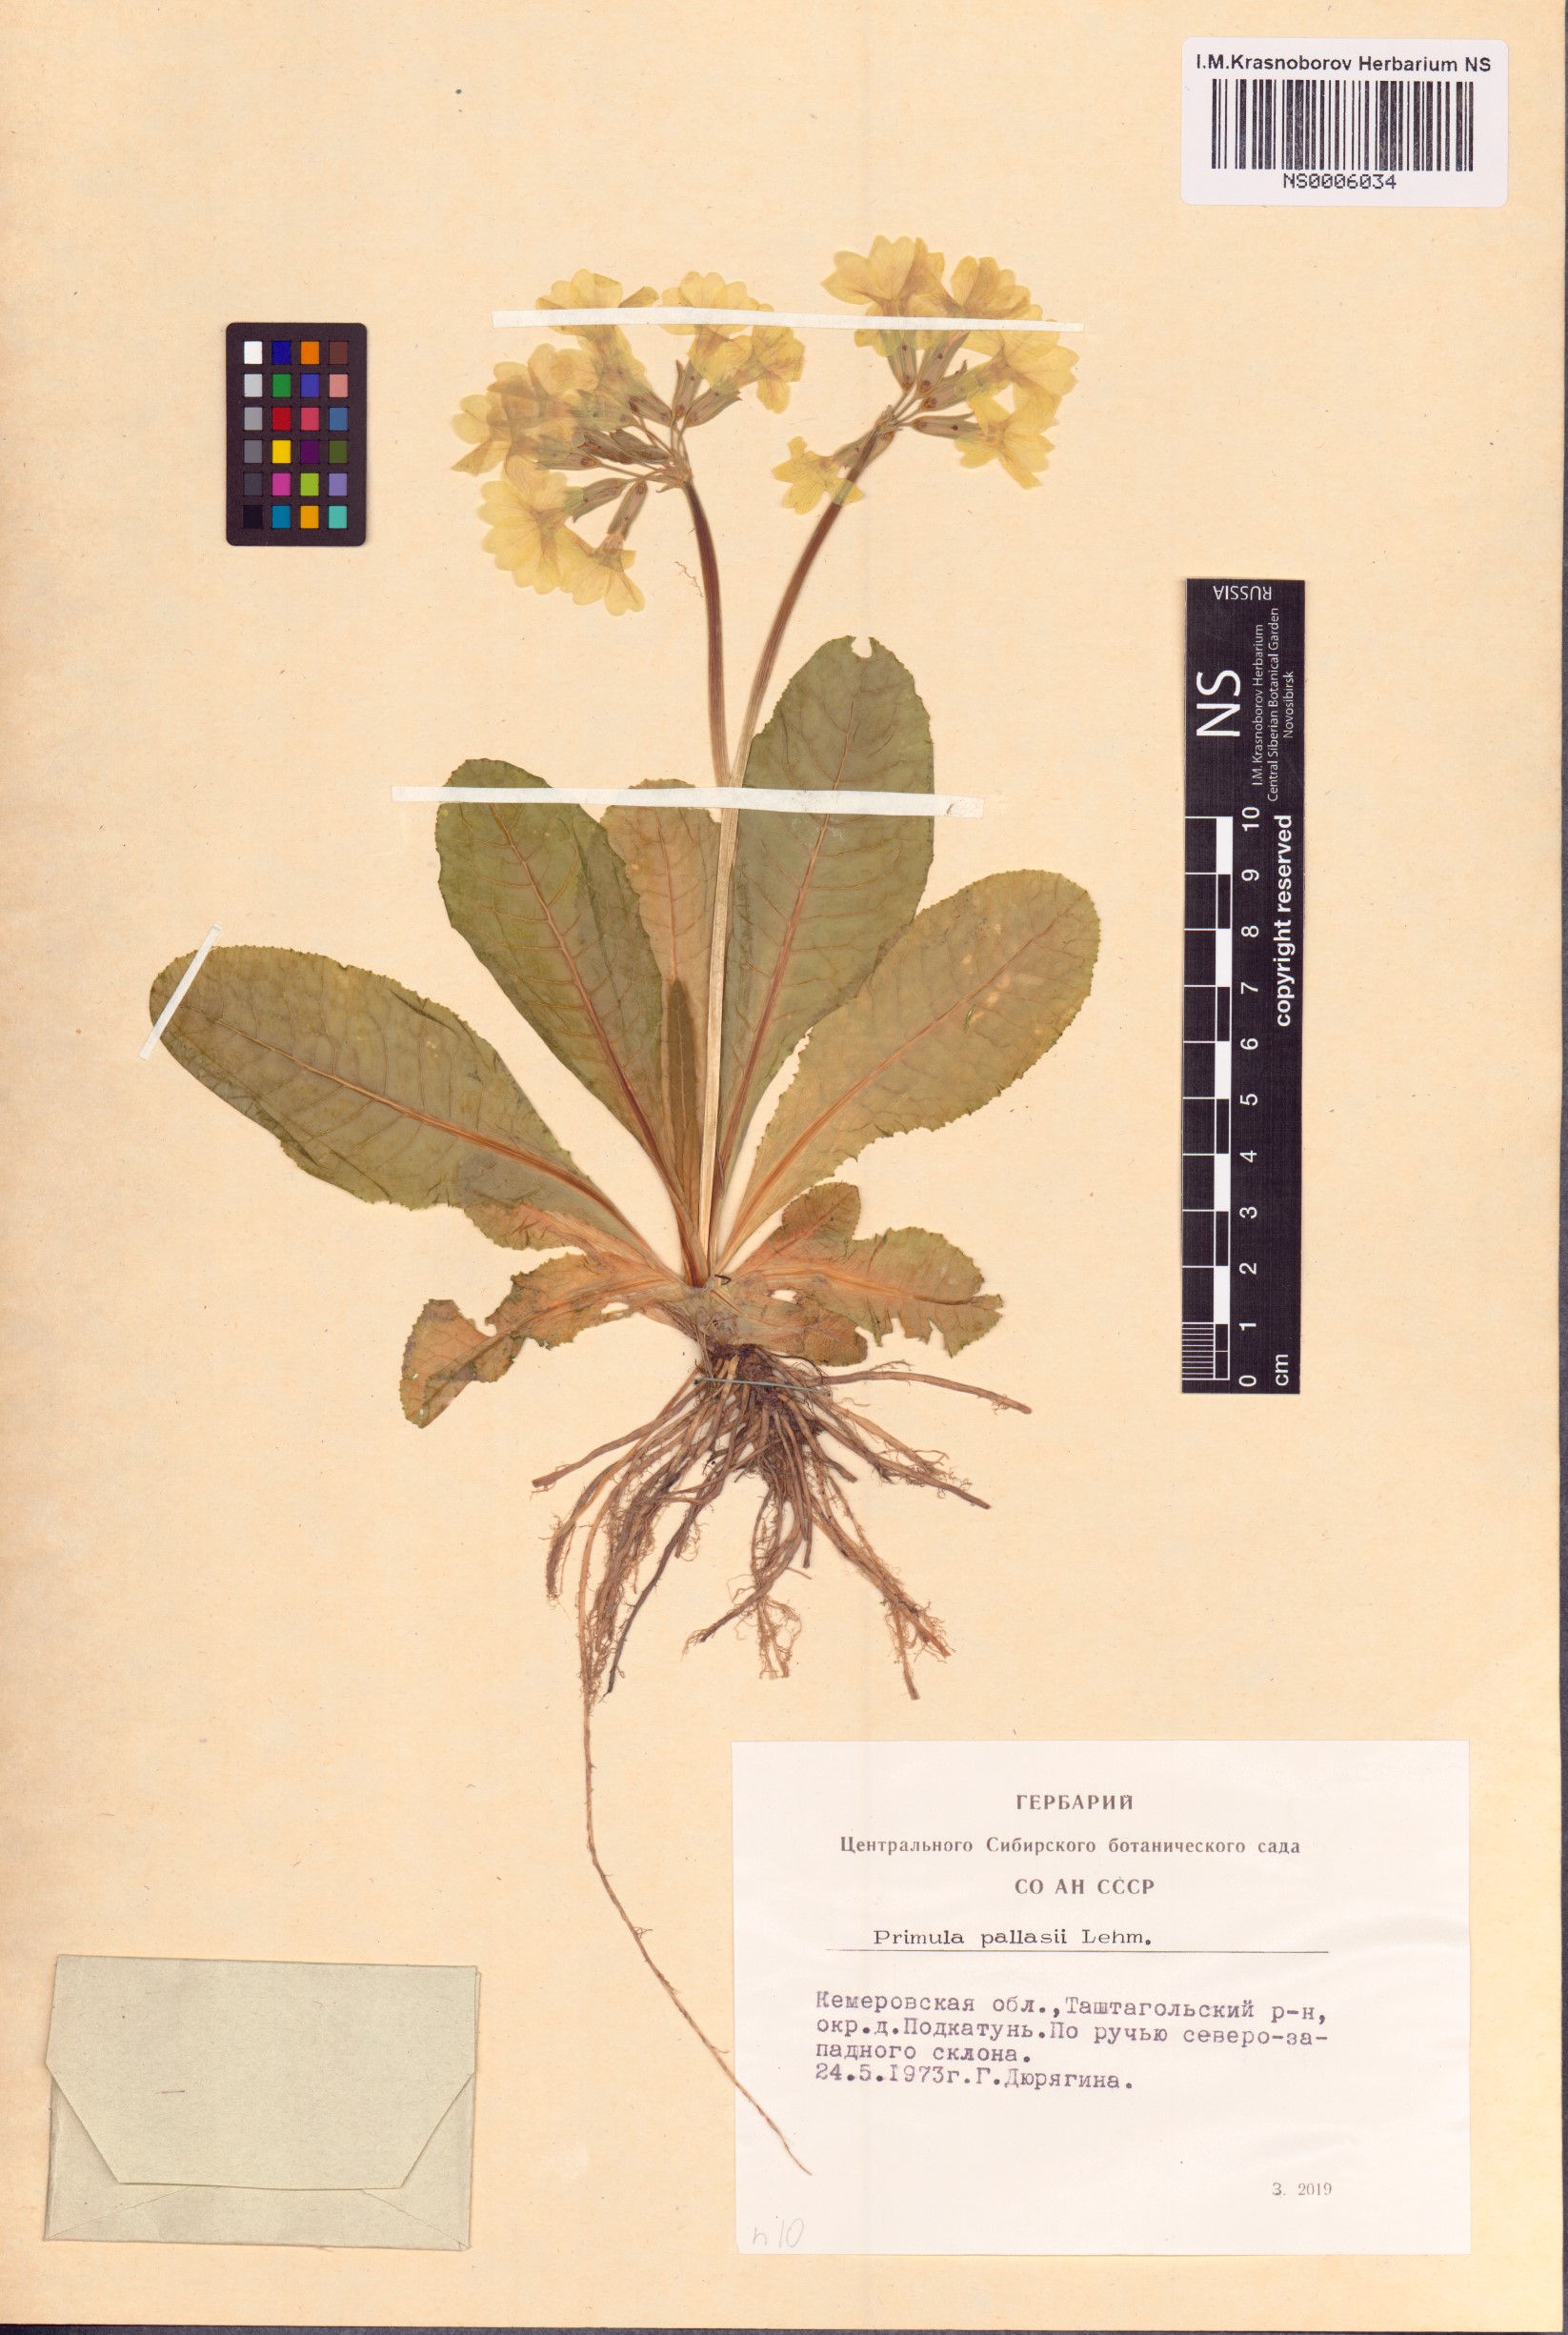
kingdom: Plantae
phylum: Tracheophyta
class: Magnoliopsida
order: Ericales
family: Primulaceae
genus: Primula
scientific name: Primula elatior
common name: Oxlip
